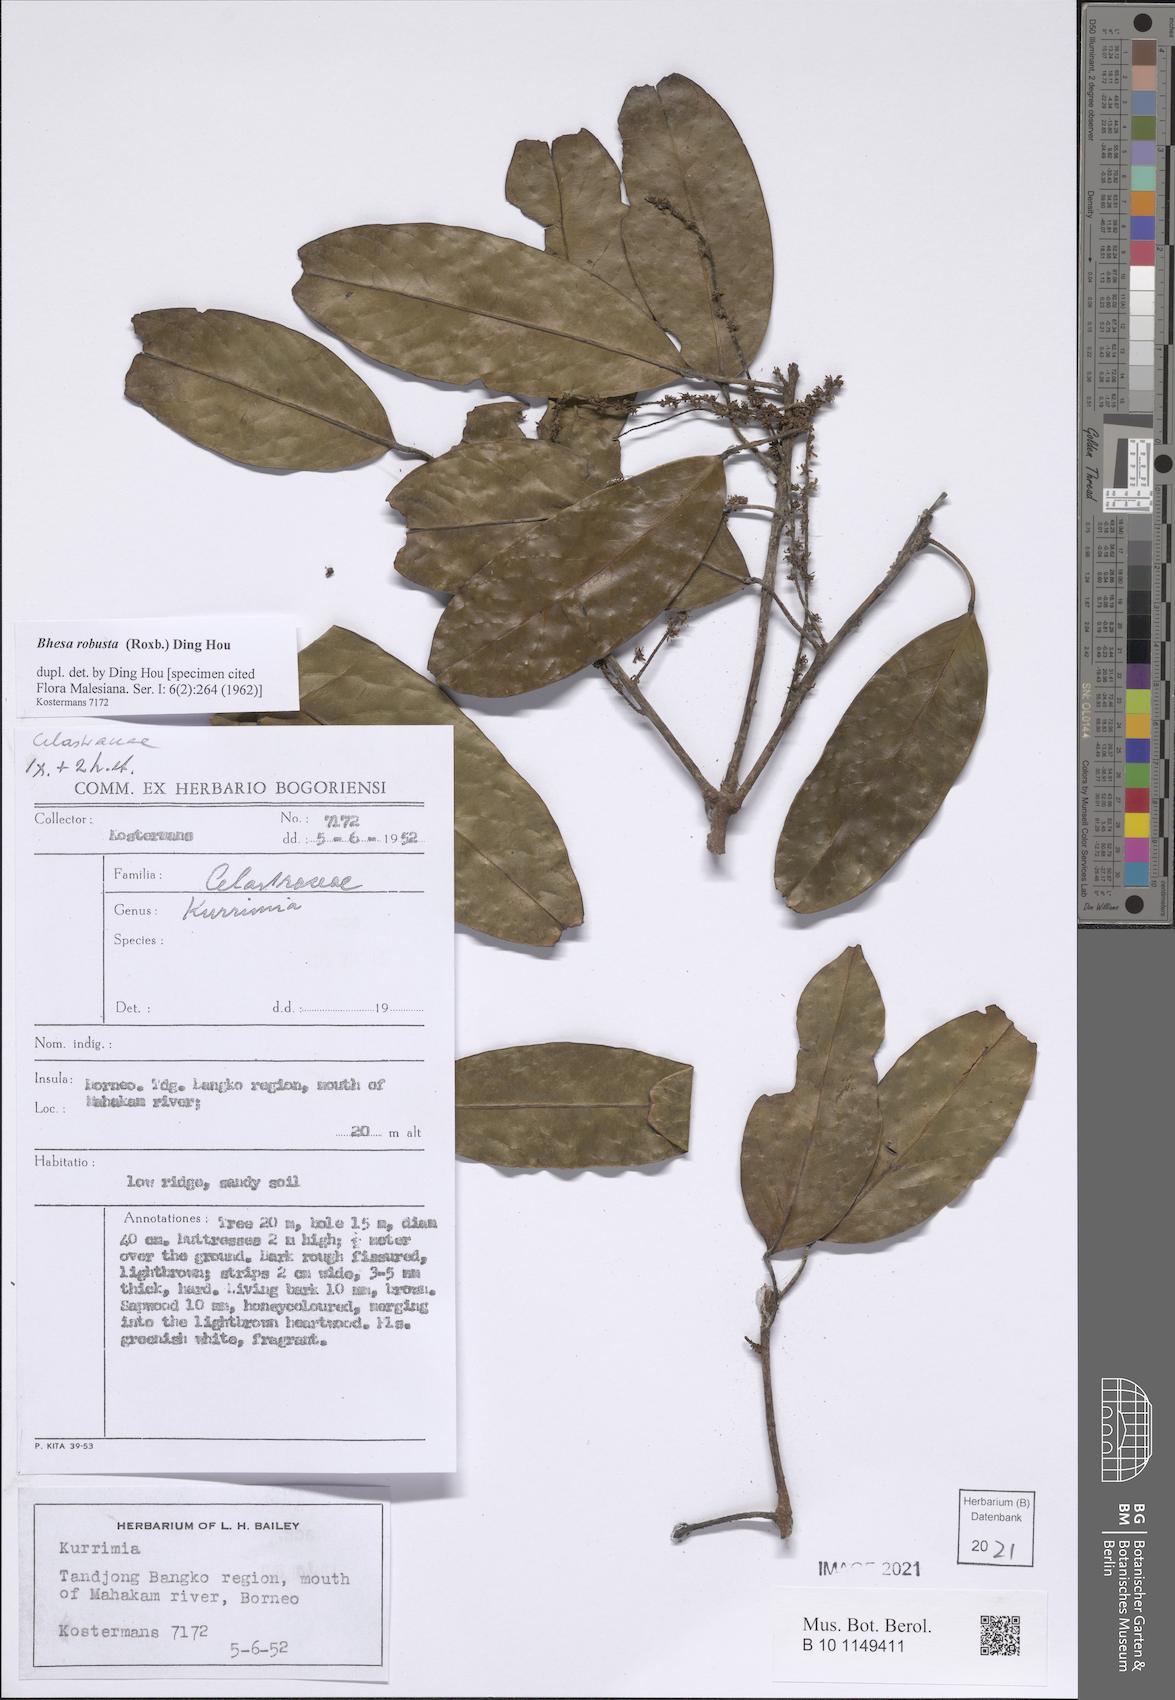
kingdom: Plantae
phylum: Tracheophyta
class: Magnoliopsida
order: Malpighiales
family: Centroplacaceae
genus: Bhesa
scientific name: Bhesa robusta
